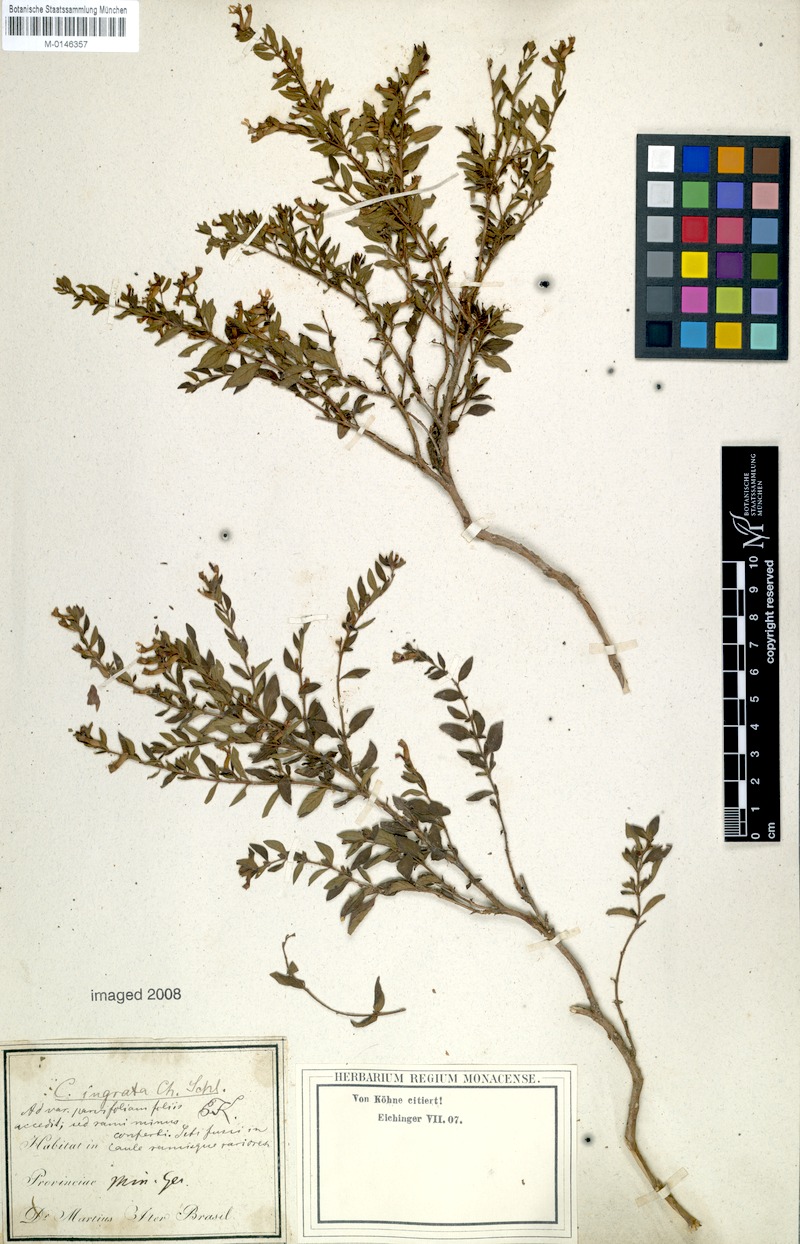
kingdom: Plantae
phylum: Tracheophyta
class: Magnoliopsida
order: Myrtales
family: Lythraceae
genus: Cuphea
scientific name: Cuphea ingrata
